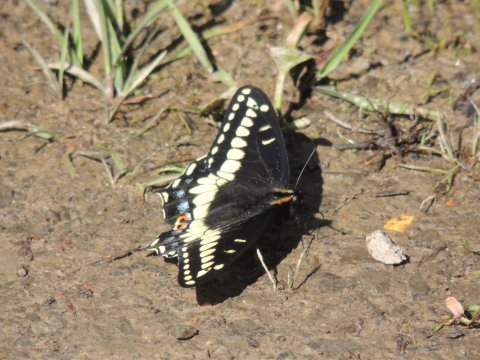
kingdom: Animalia
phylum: Arthropoda
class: Insecta
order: Lepidoptera
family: Papilionidae
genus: Papilio
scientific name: Papilio indra
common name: Indra Swallowtail
